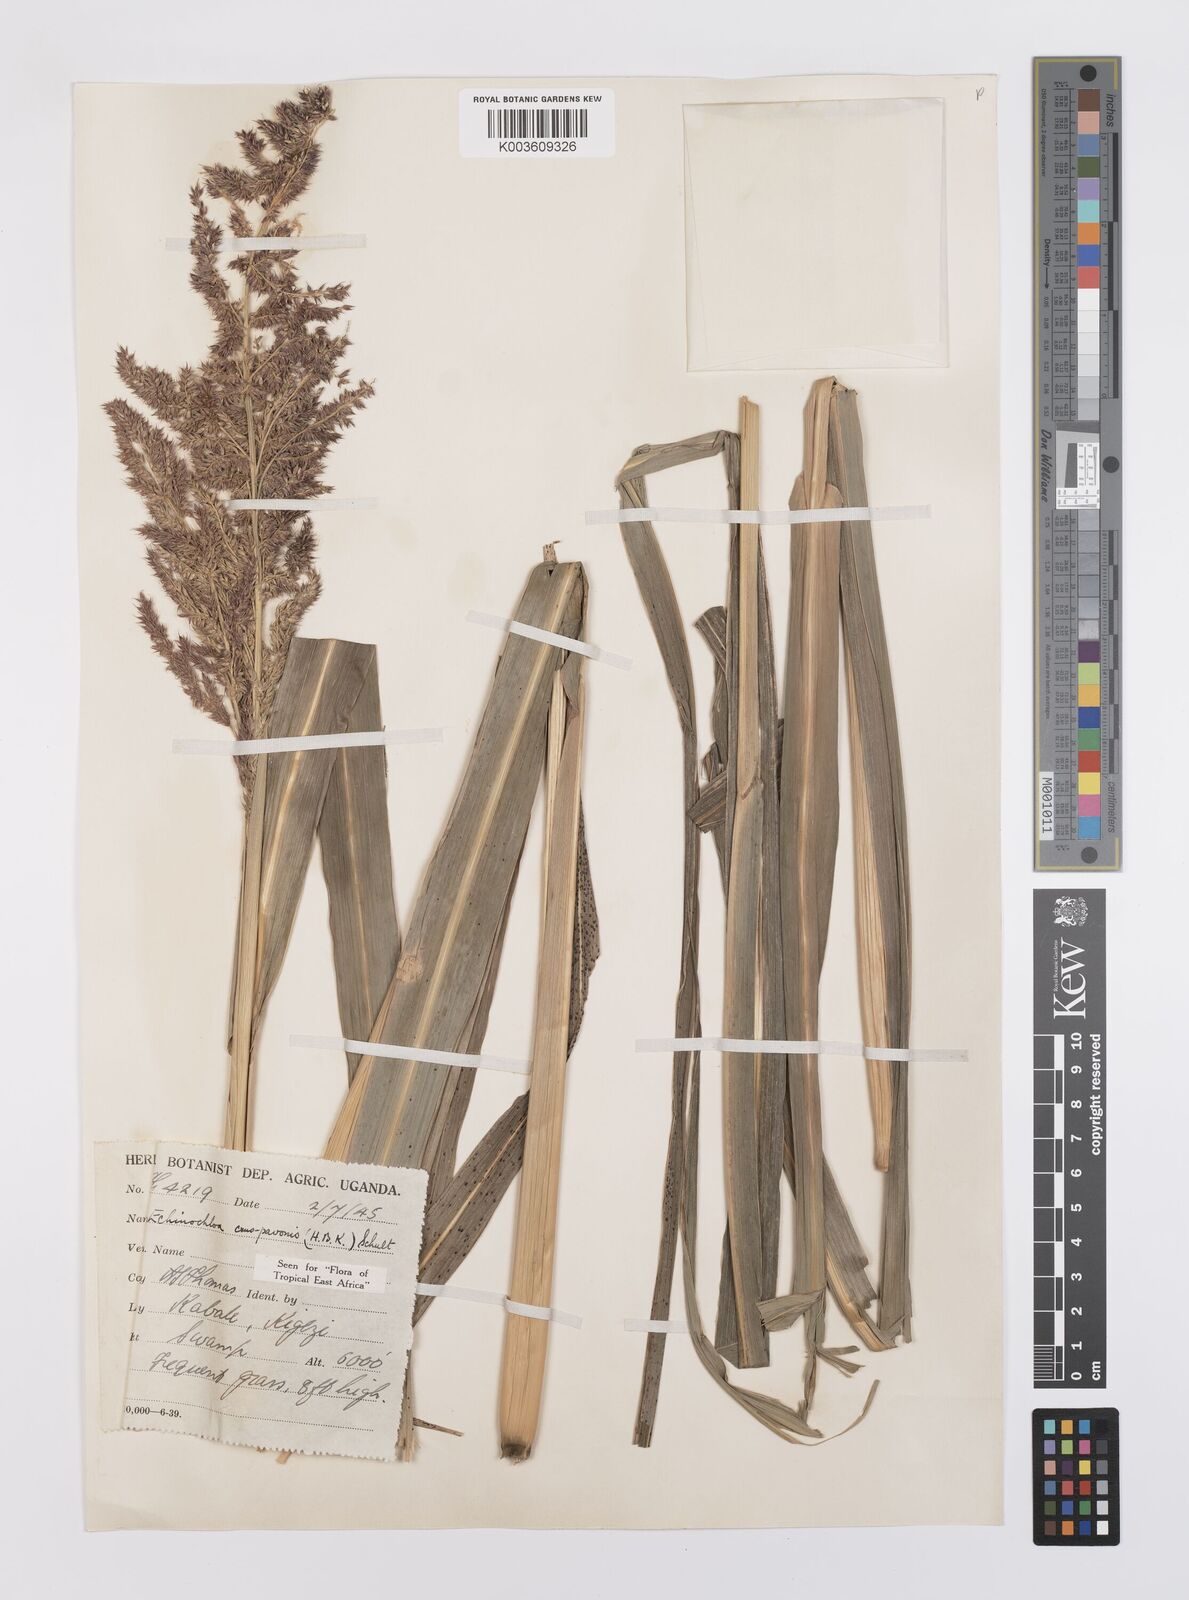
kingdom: Plantae
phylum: Tracheophyta
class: Liliopsida
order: Poales
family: Poaceae
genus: Echinochloa
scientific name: Echinochloa crus-pavonis
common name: Gulf cockspur grass
